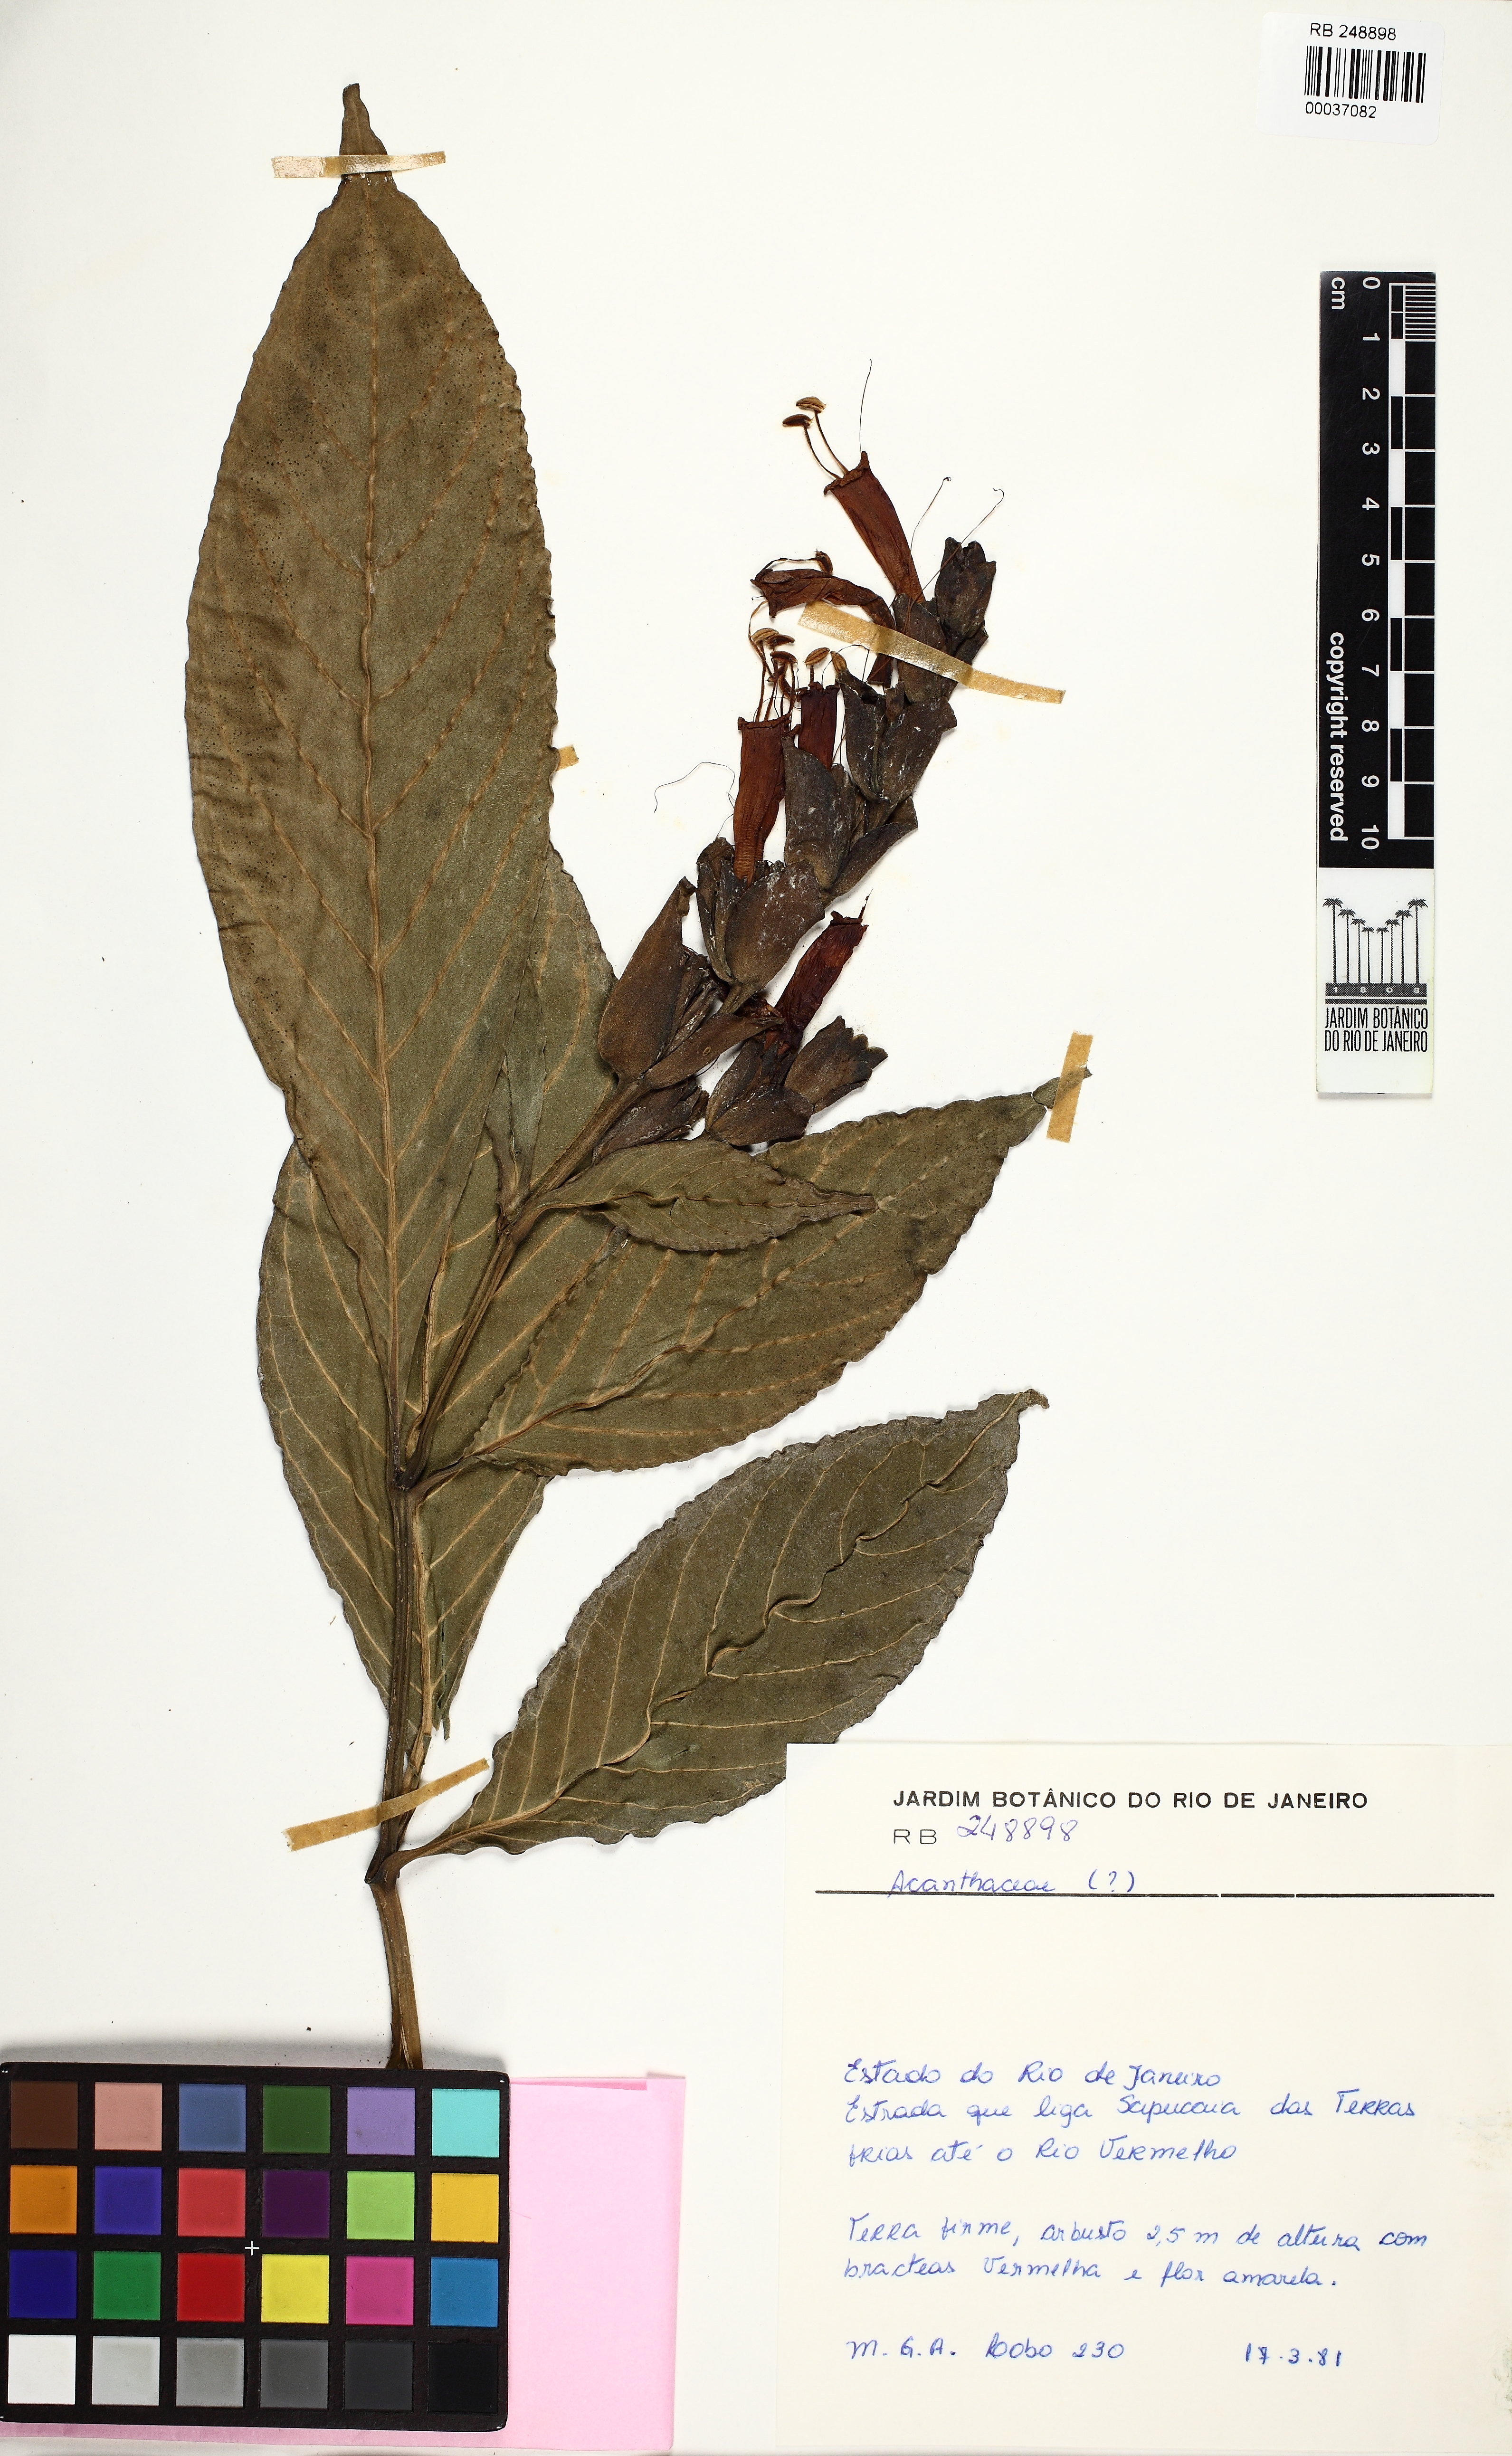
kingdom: Plantae
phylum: Tracheophyta
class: Magnoliopsida
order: Lamiales
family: Acanthaceae
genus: Sanchezia
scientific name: Sanchezia oblonga
